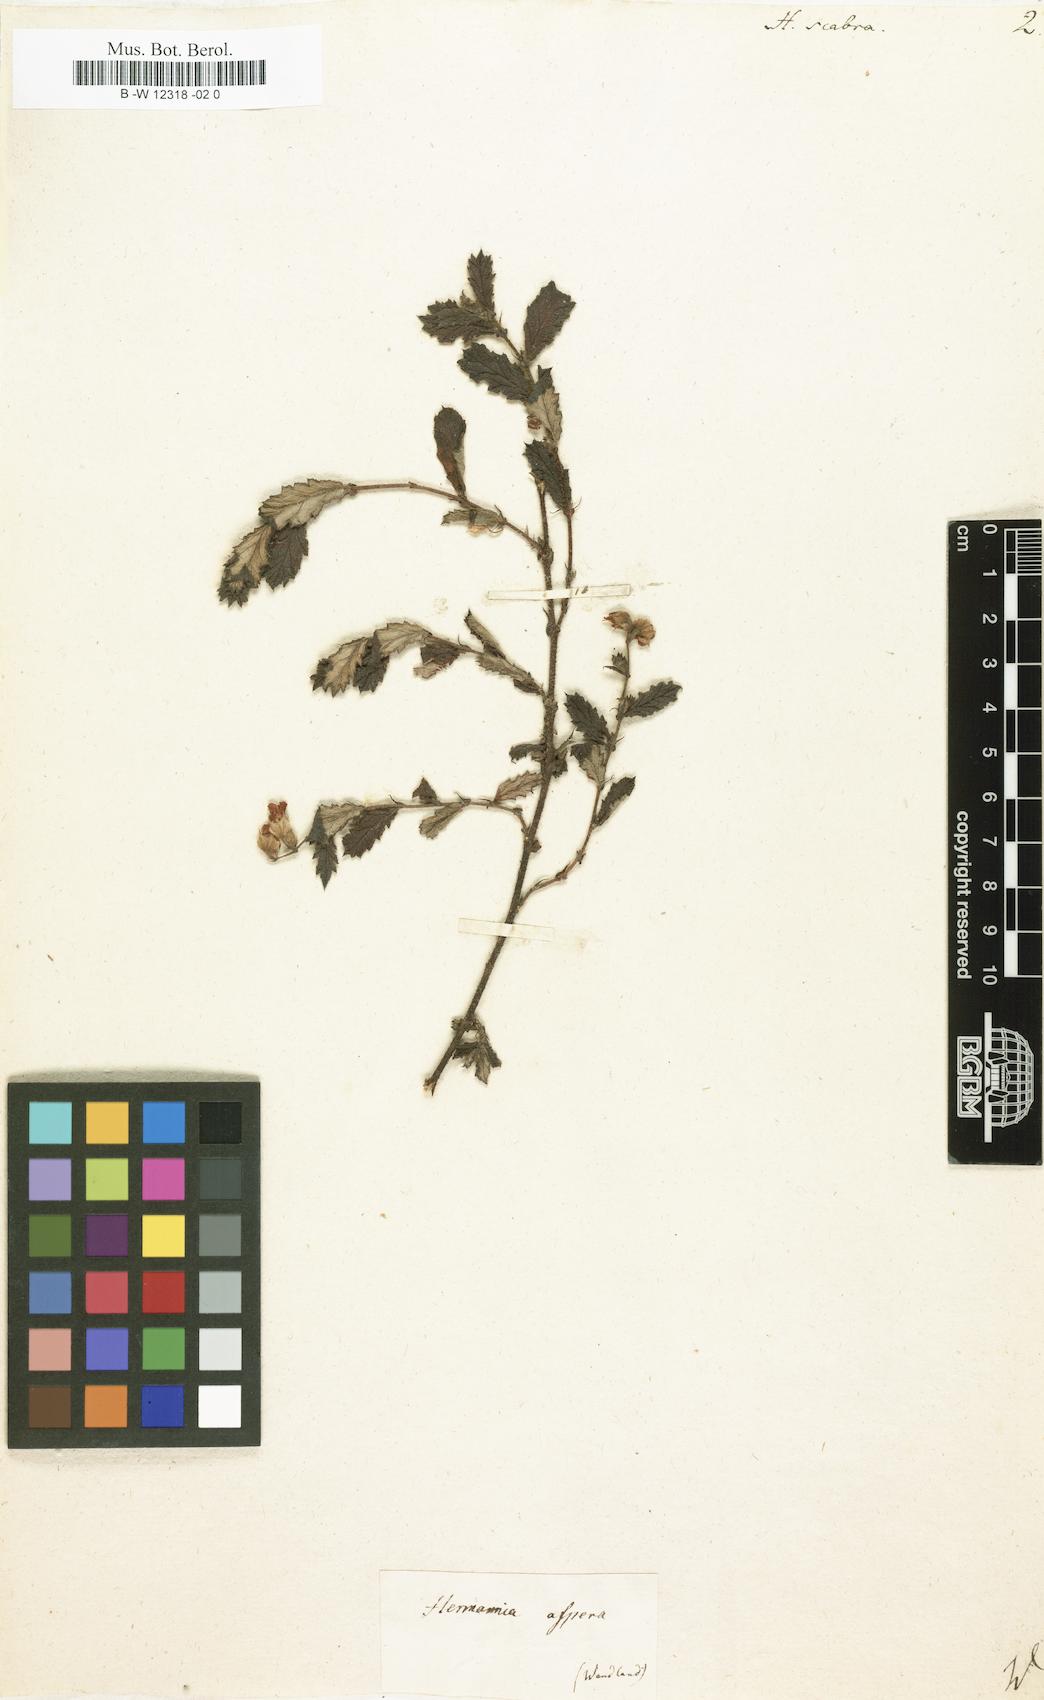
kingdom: Plantae
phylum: Tracheophyta
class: Magnoliopsida
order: Malvales
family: Malvaceae
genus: Hermannia
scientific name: Hermannia scabra
